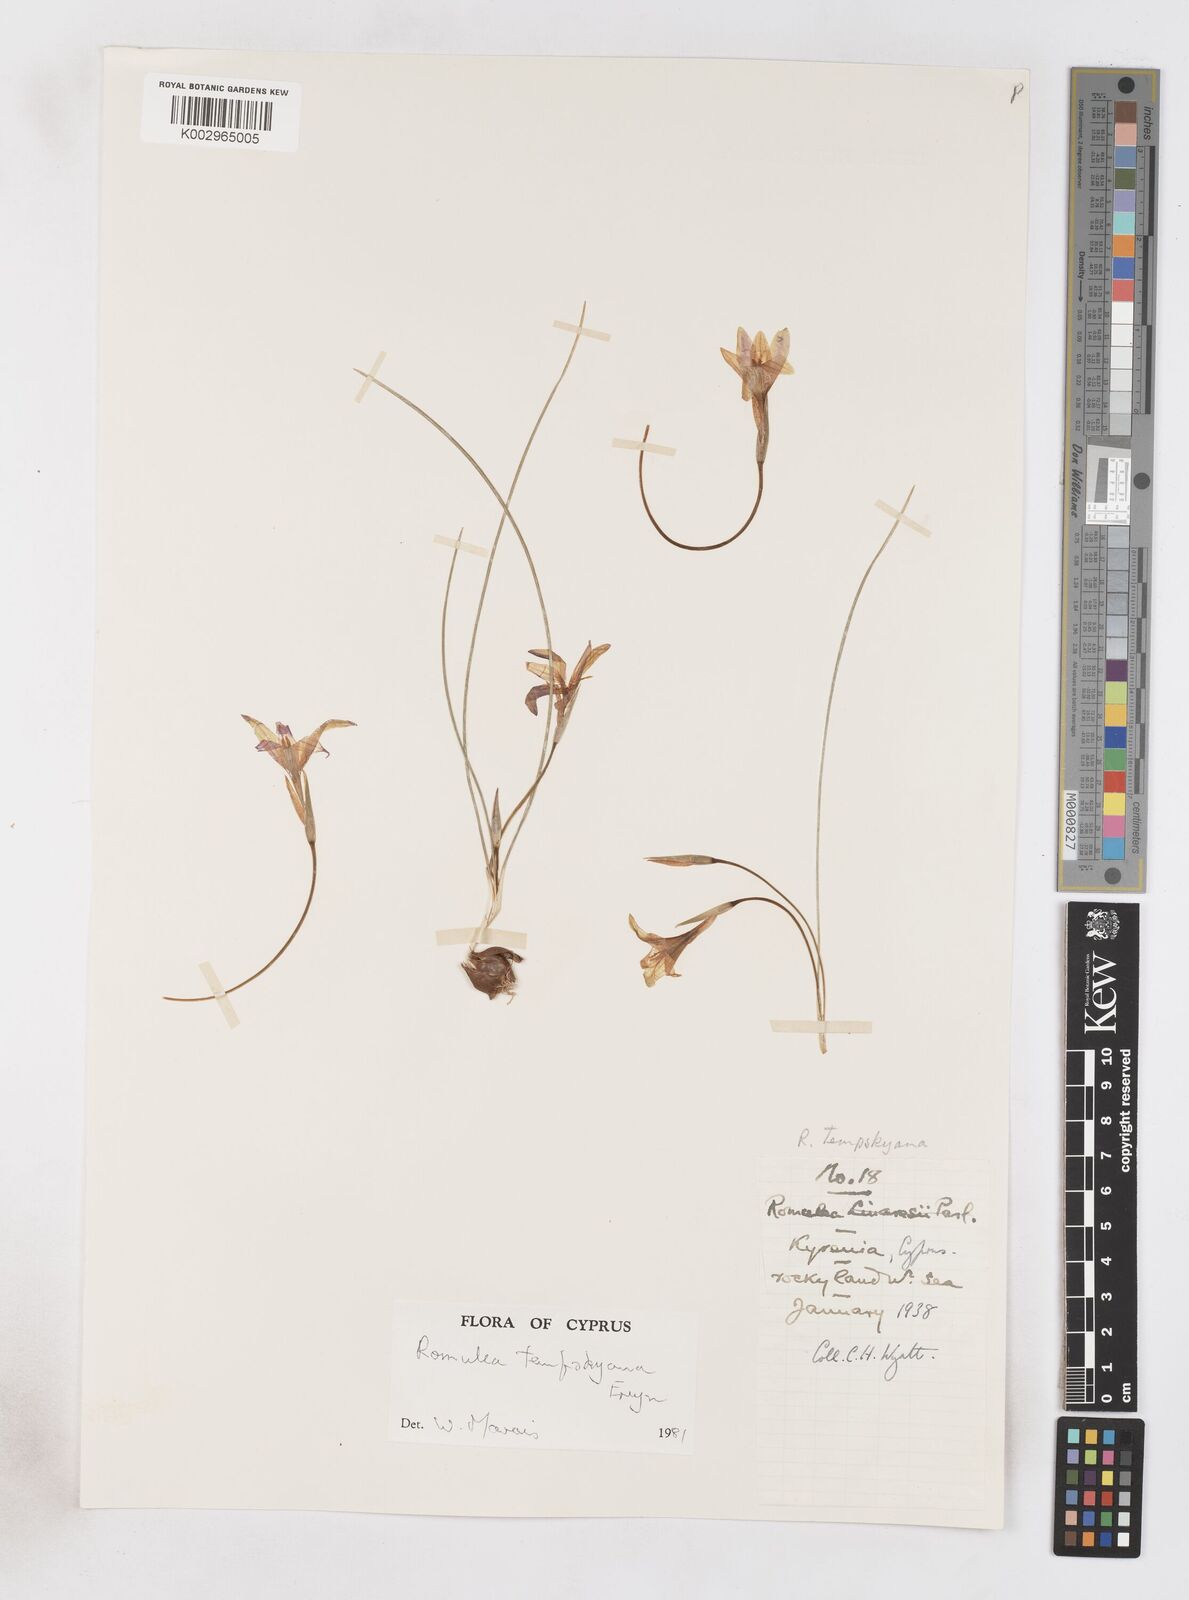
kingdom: Plantae
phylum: Tracheophyta
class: Liliopsida
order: Asparagales
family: Iridaceae
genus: Romulea
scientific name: Romulea tempskyana
